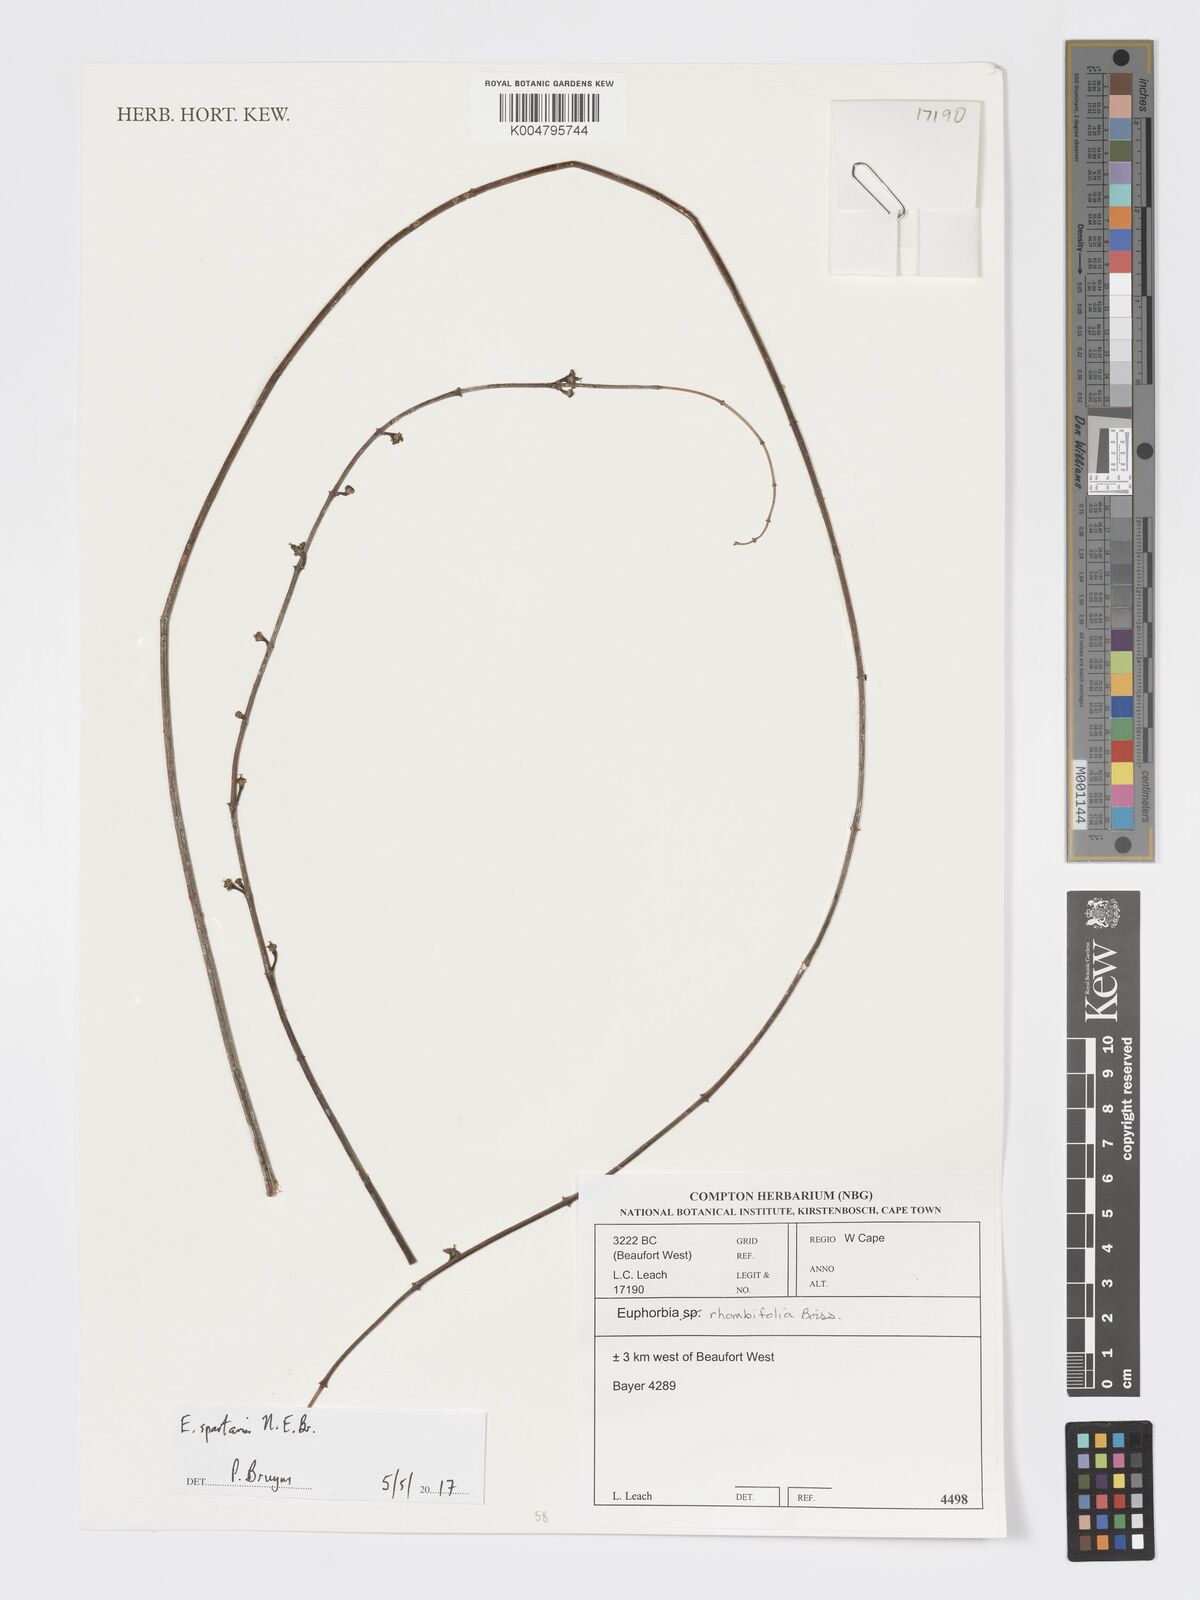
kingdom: Plantae
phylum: Tracheophyta
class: Magnoliopsida
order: Malpighiales
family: Euphorbiaceae
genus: Euphorbia
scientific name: Euphorbia spartaria
